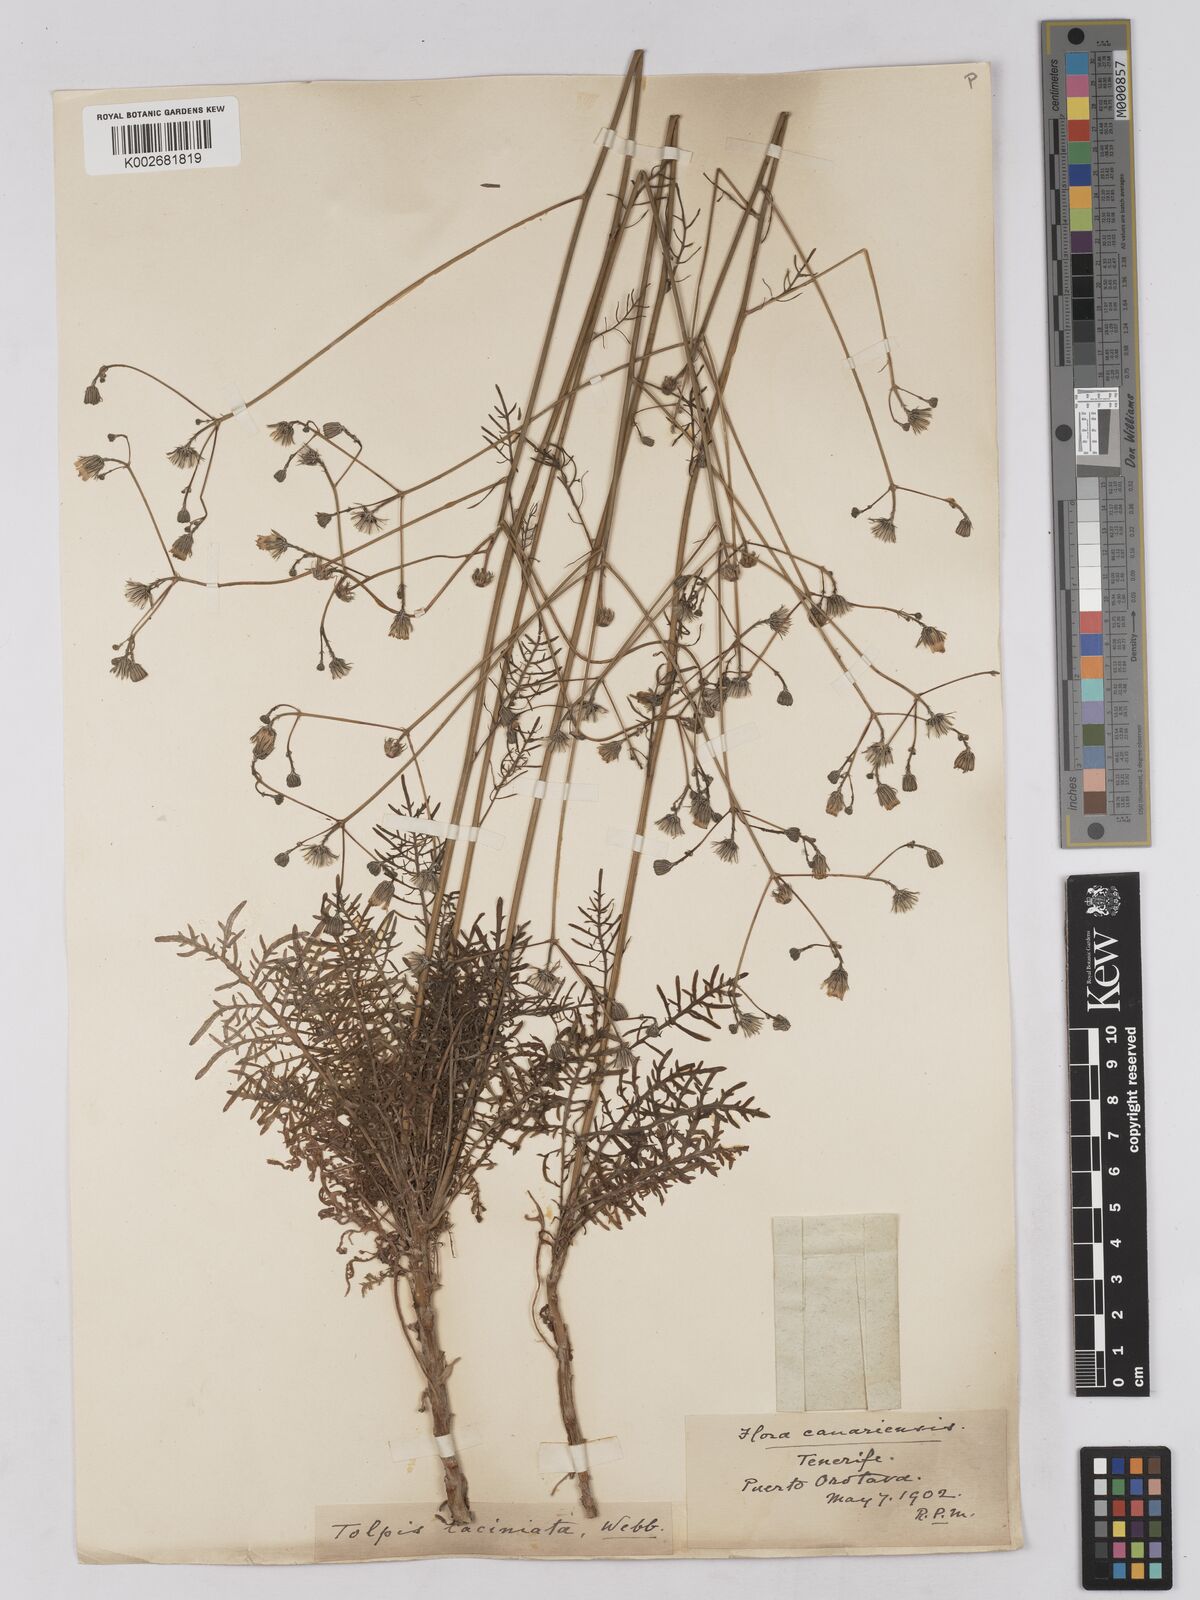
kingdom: Plantae
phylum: Tracheophyta
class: Magnoliopsida
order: Asterales
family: Asteraceae
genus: Tolpis
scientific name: Tolpis coronopifolia
